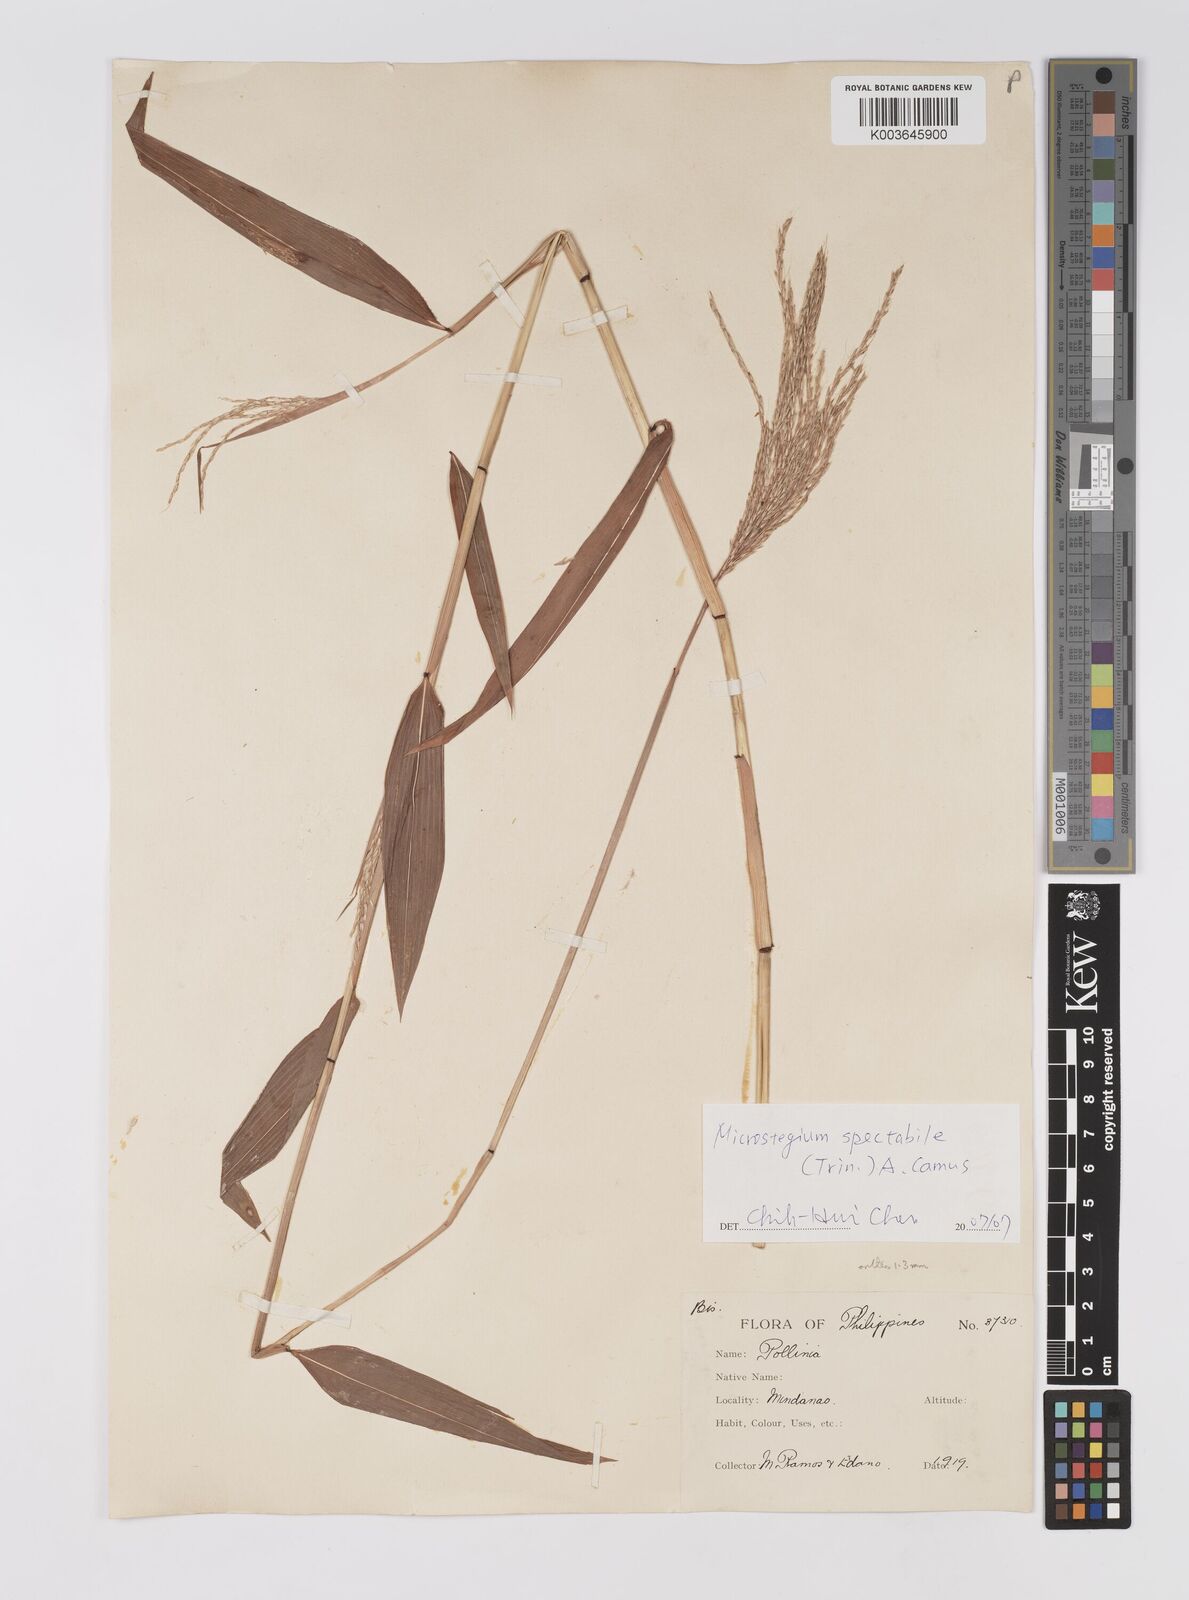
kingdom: Plantae
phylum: Tracheophyta
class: Liliopsida
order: Poales
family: Poaceae
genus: Microstegium
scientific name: Microstegium spectabile
